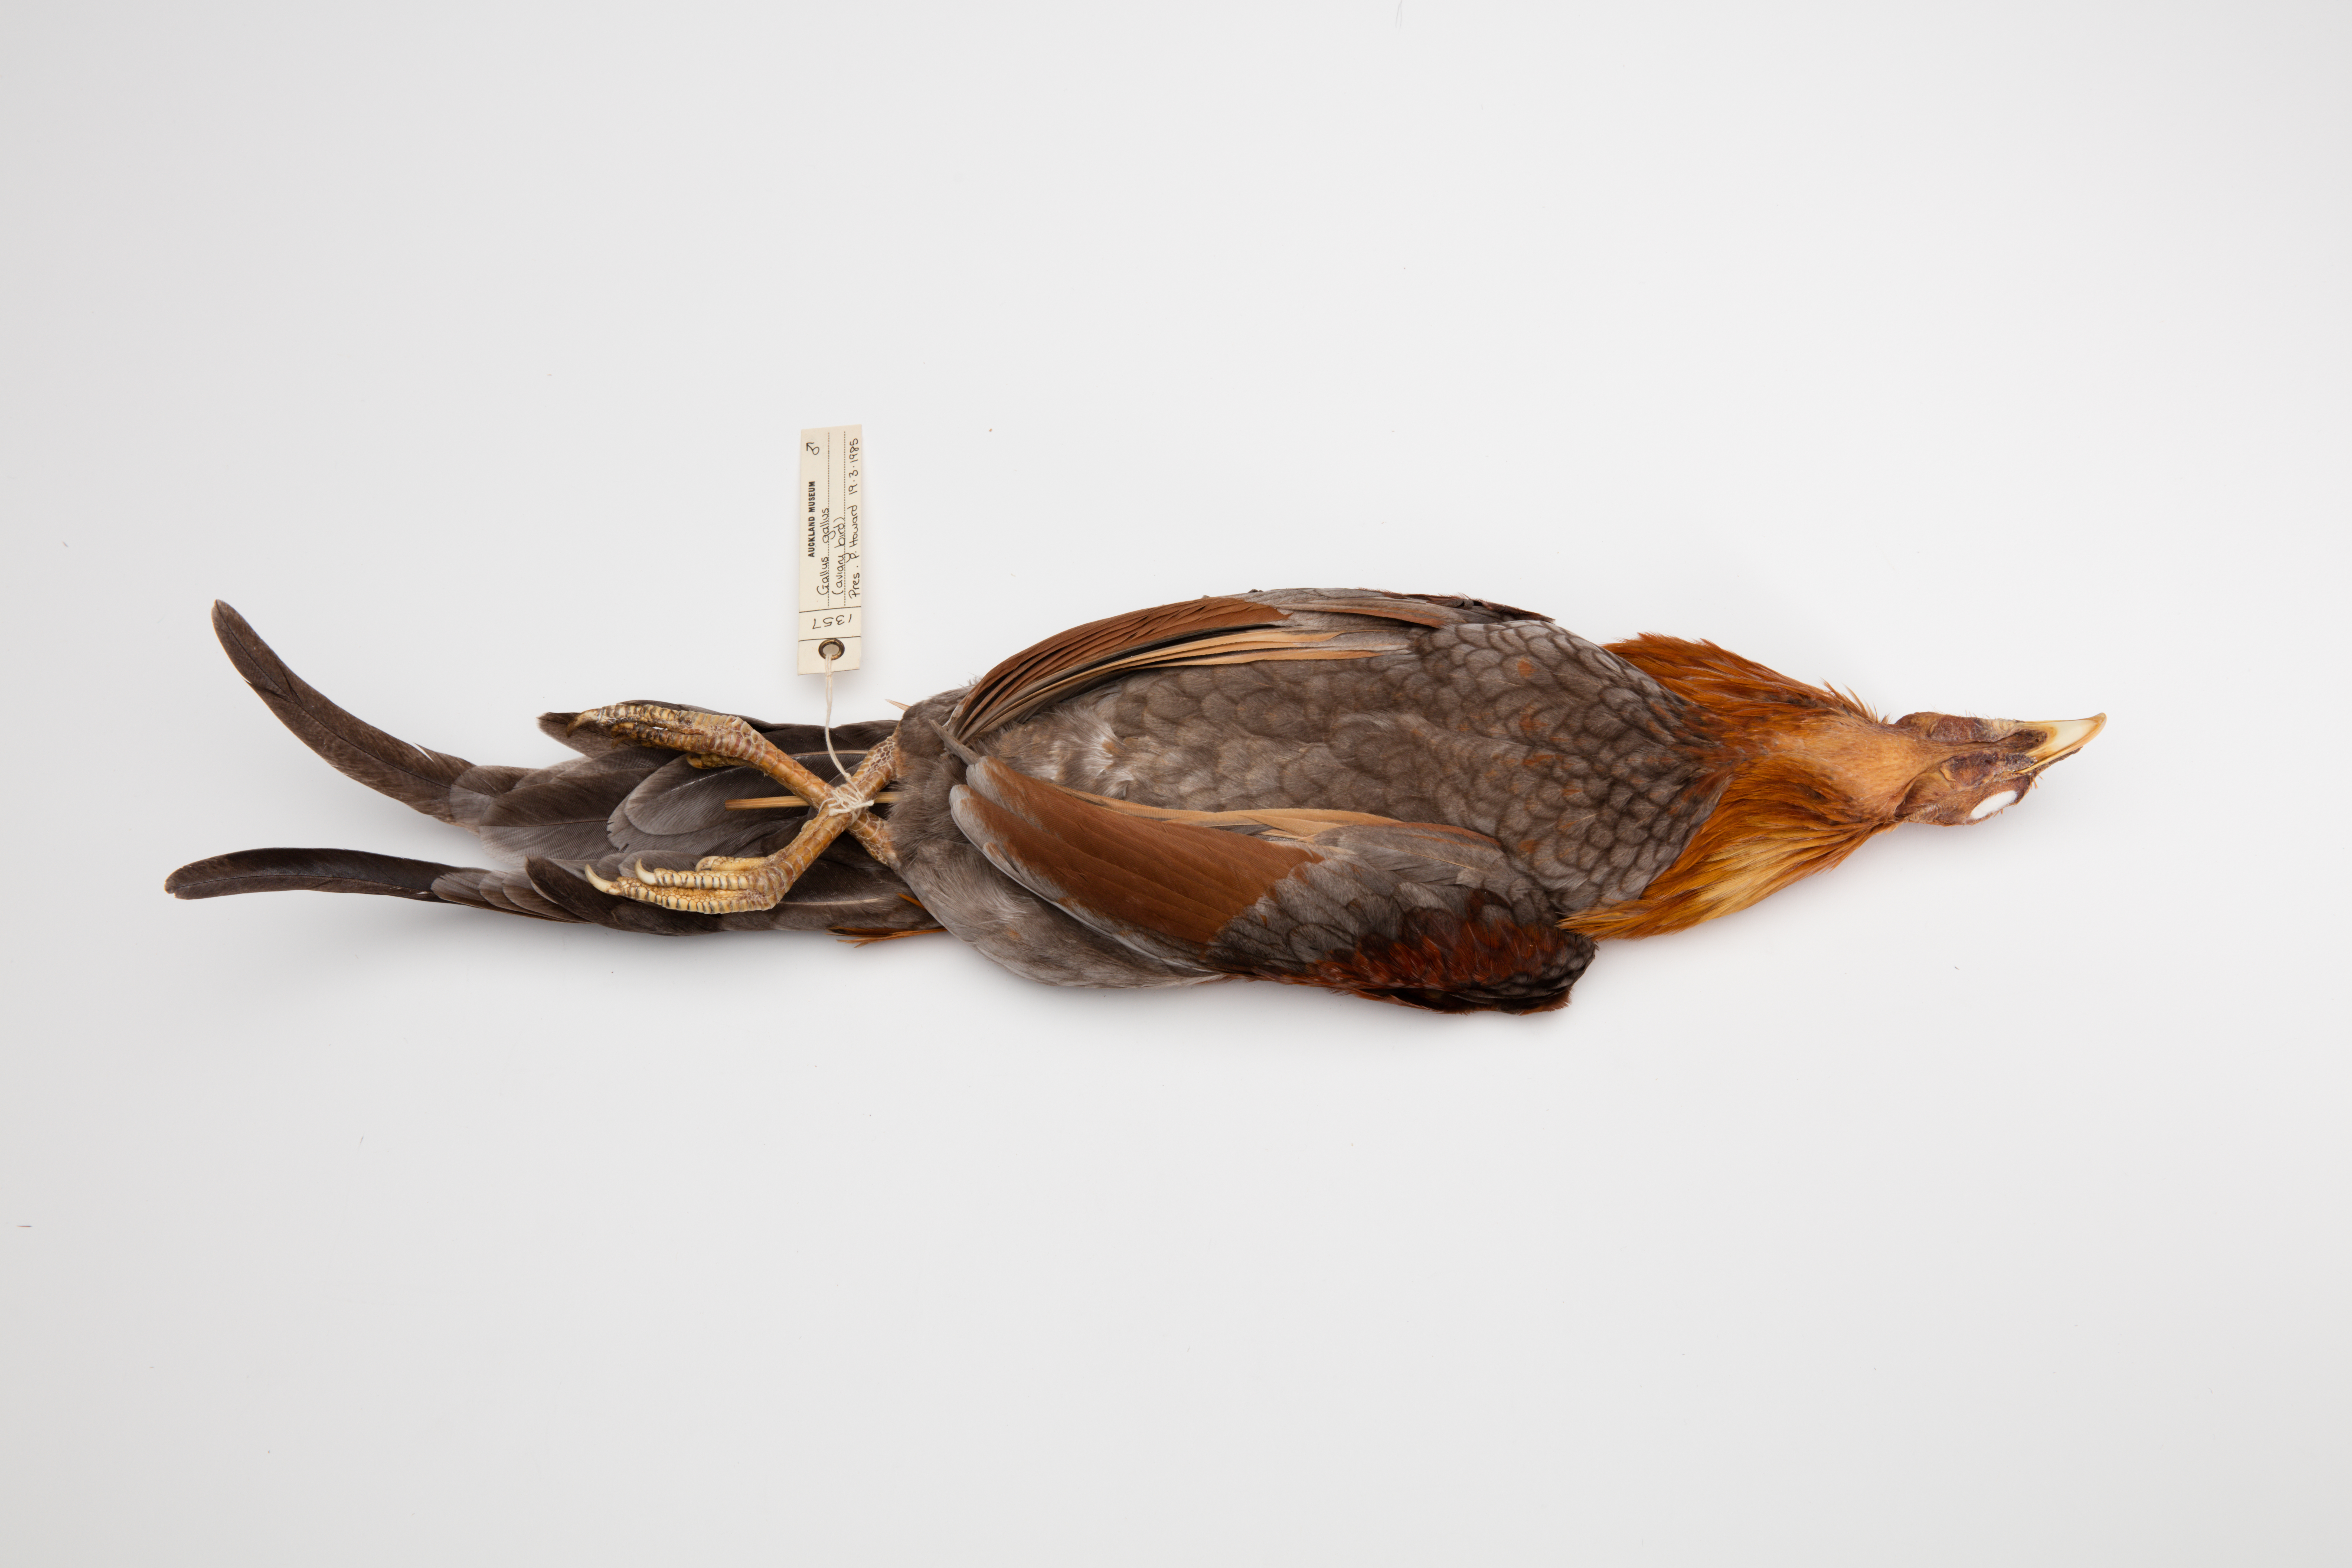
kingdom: Animalia
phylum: Chordata
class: Aves
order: Galliformes
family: Phasianidae
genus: Gallus
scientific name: Gallus gallus
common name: Red junglefowl
